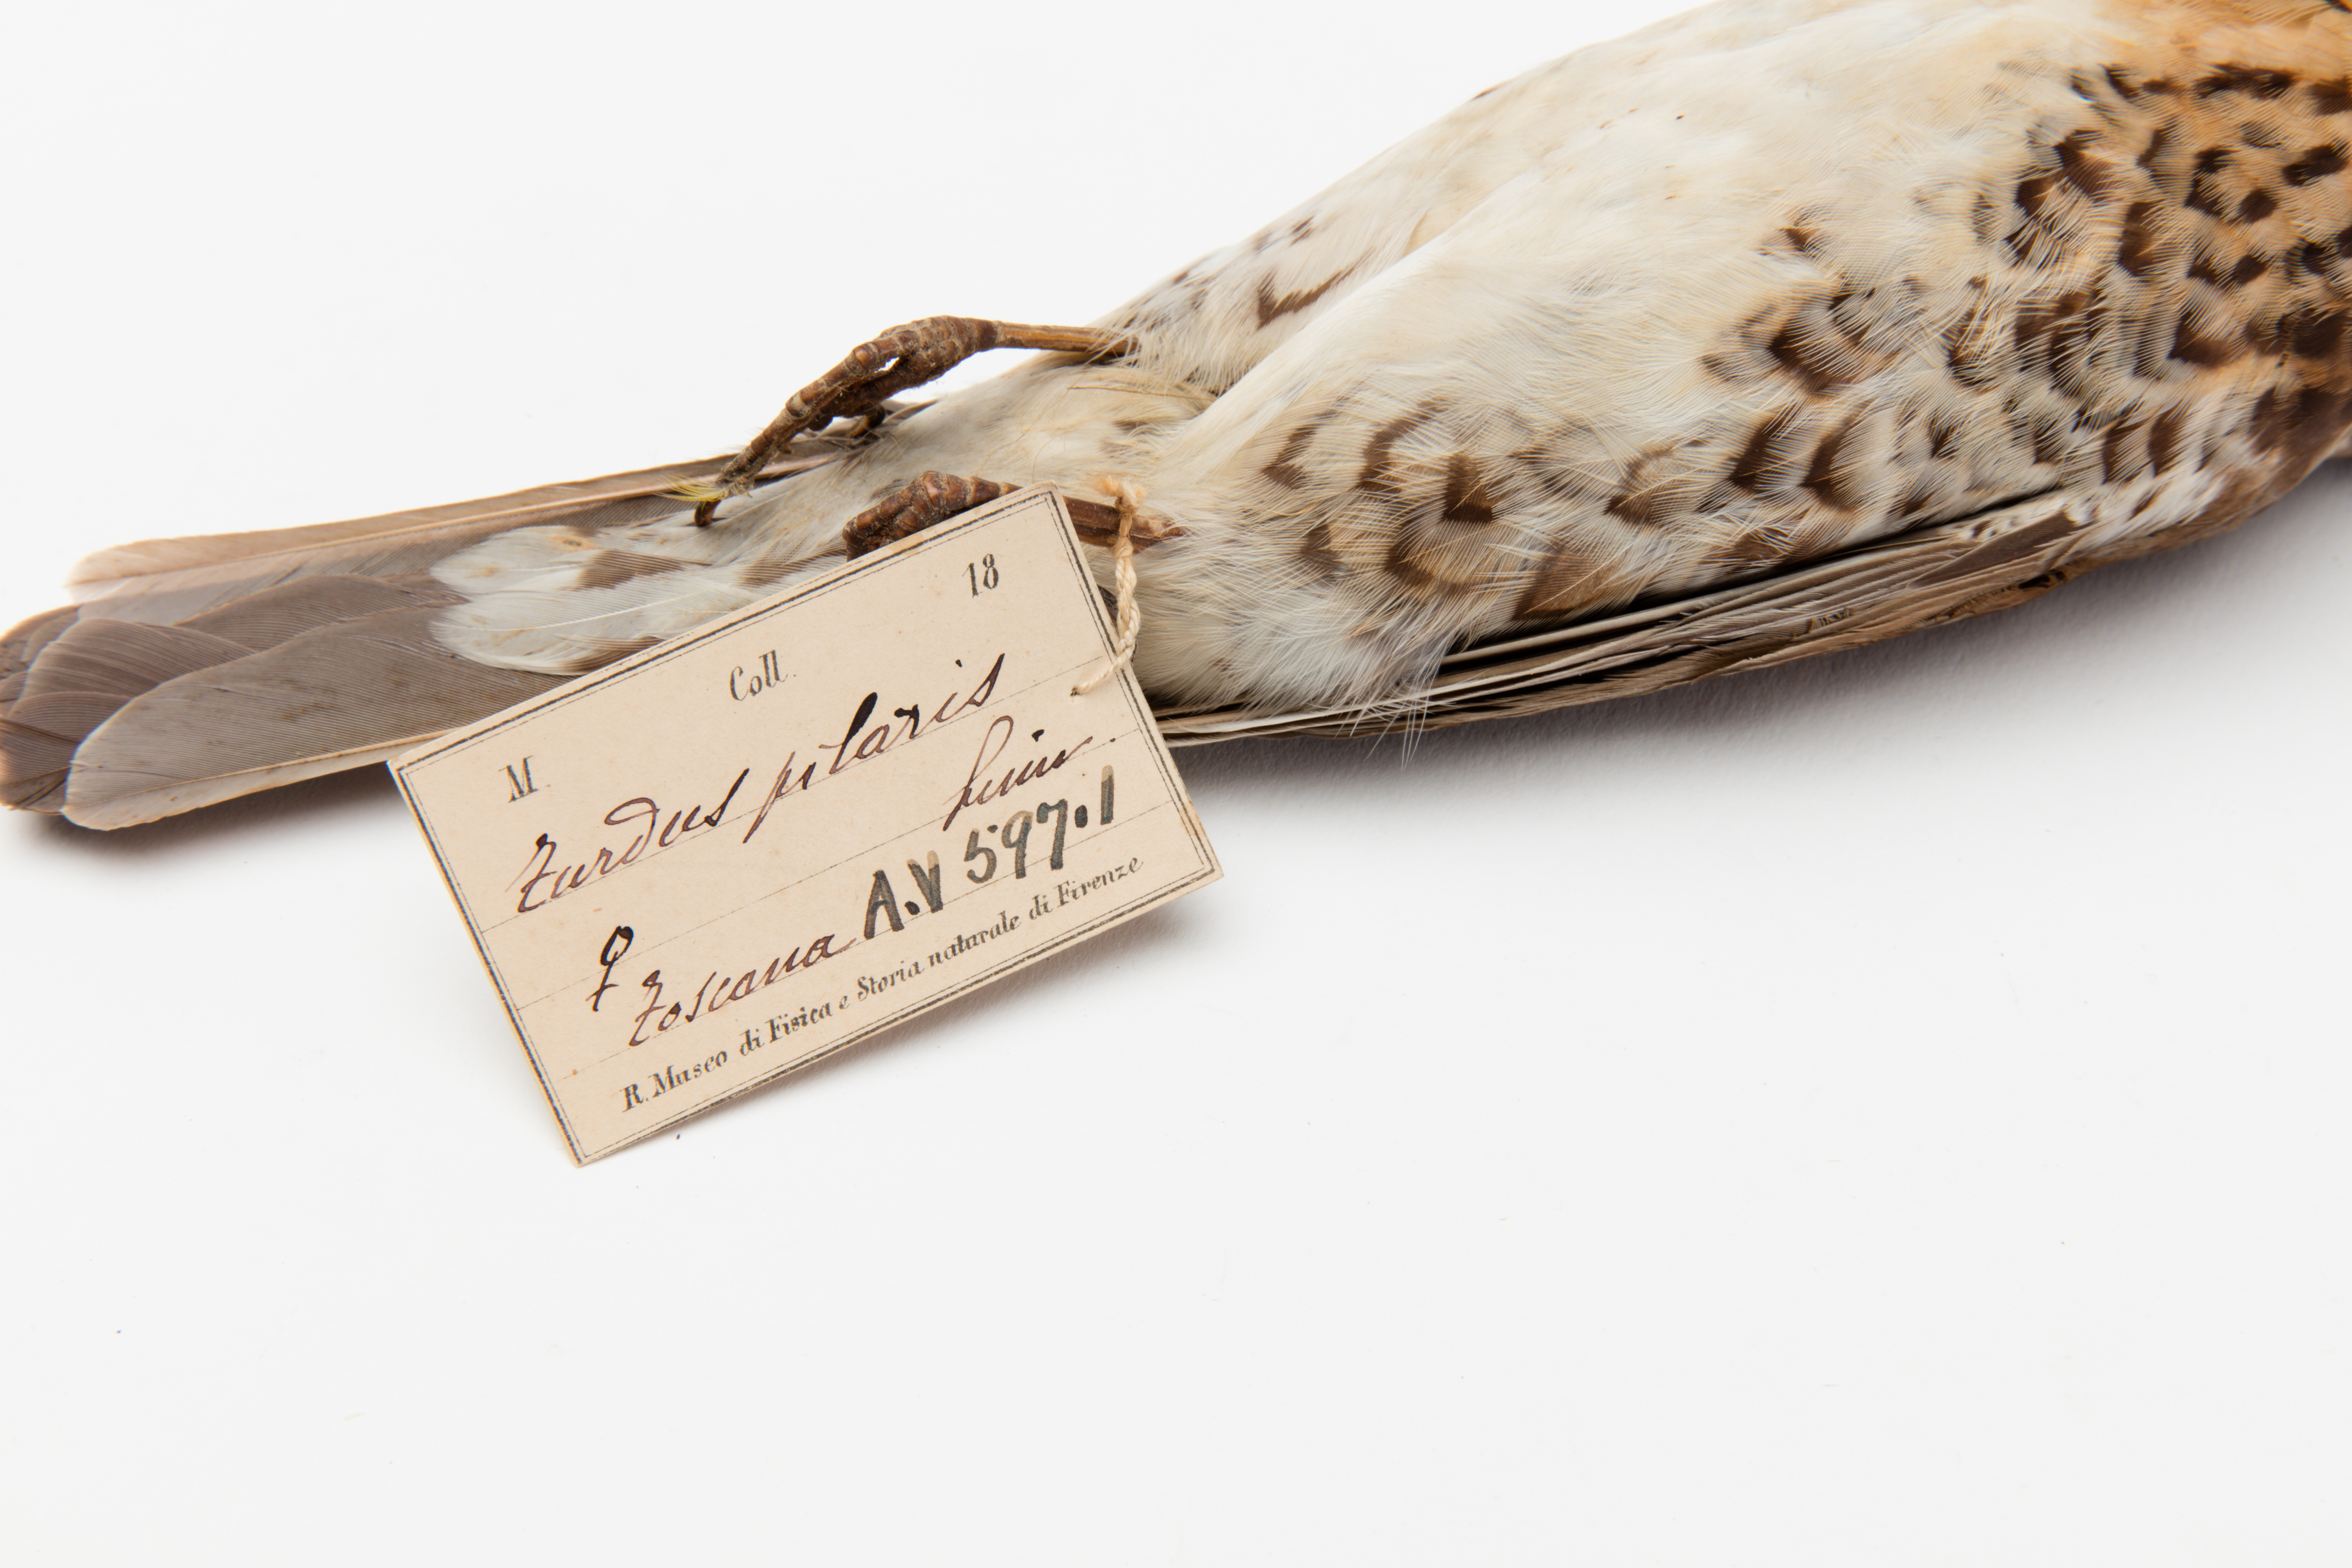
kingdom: Animalia
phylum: Chordata
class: Aves
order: Passeriformes
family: Turdidae
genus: Turdus
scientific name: Turdus pilaris
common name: Fieldfare
